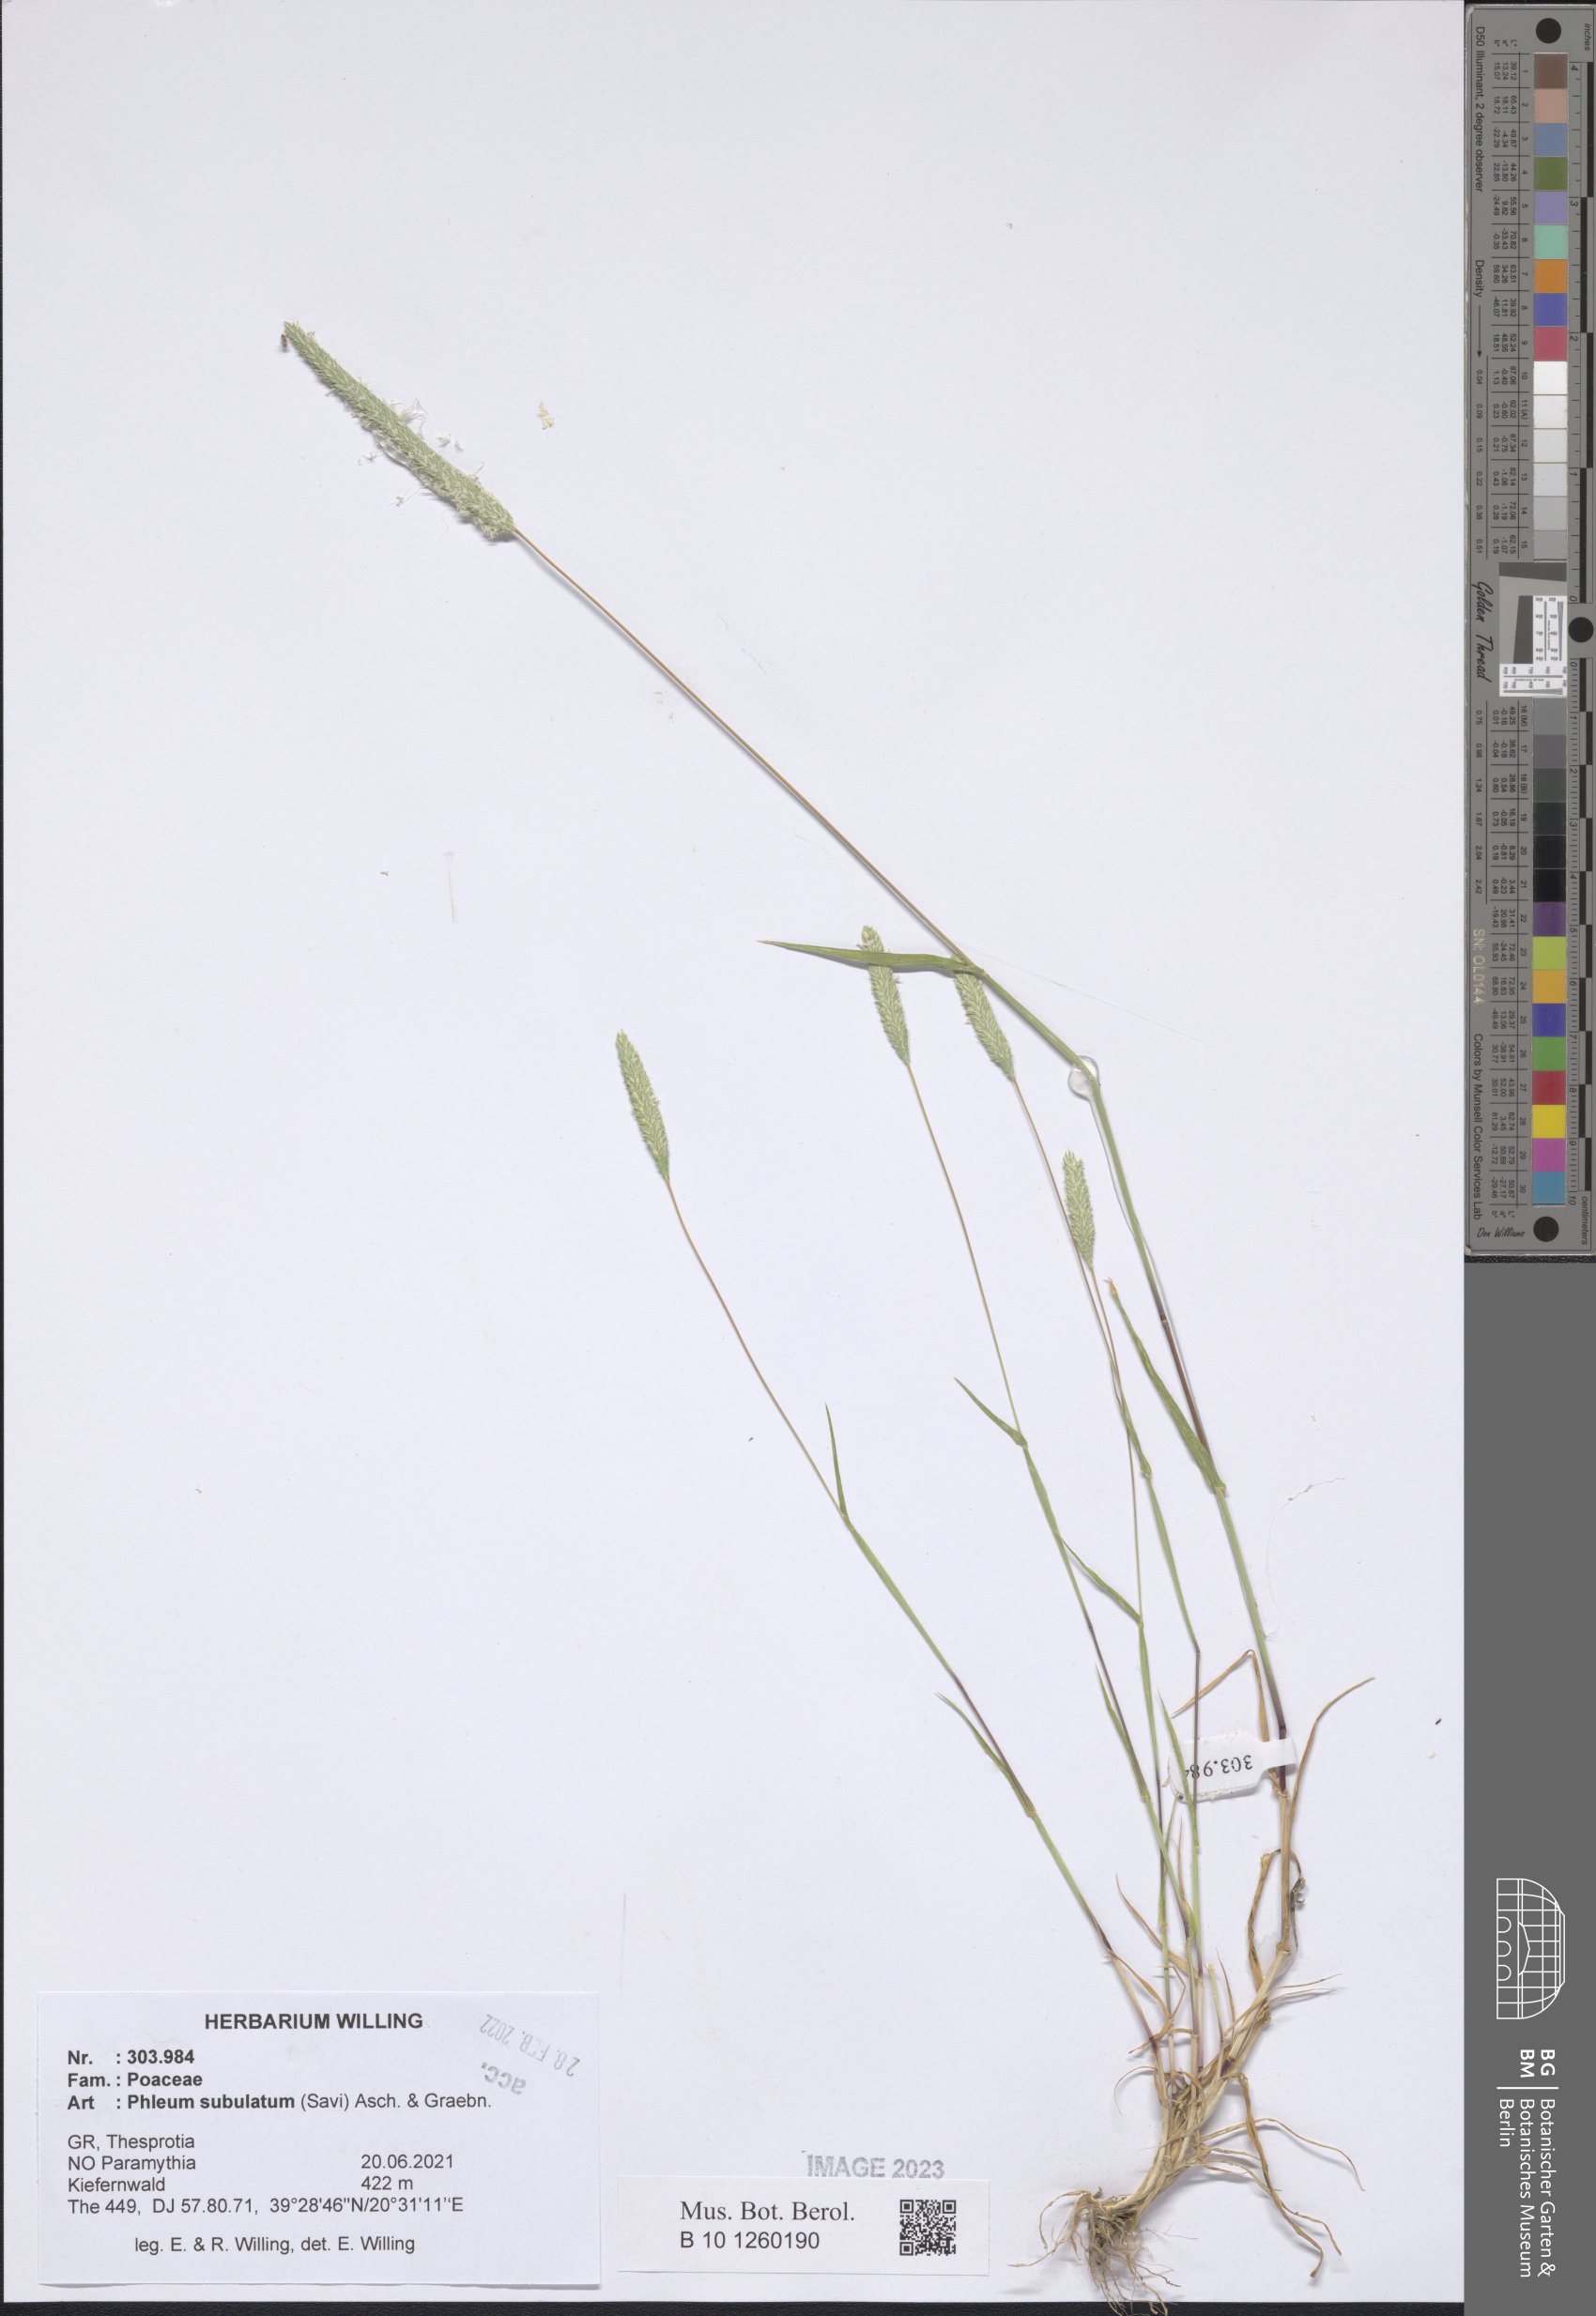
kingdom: Plantae
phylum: Tracheophyta
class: Liliopsida
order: Poales
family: Poaceae
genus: Phleum
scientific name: Phleum subulatum
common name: Italian timothy
